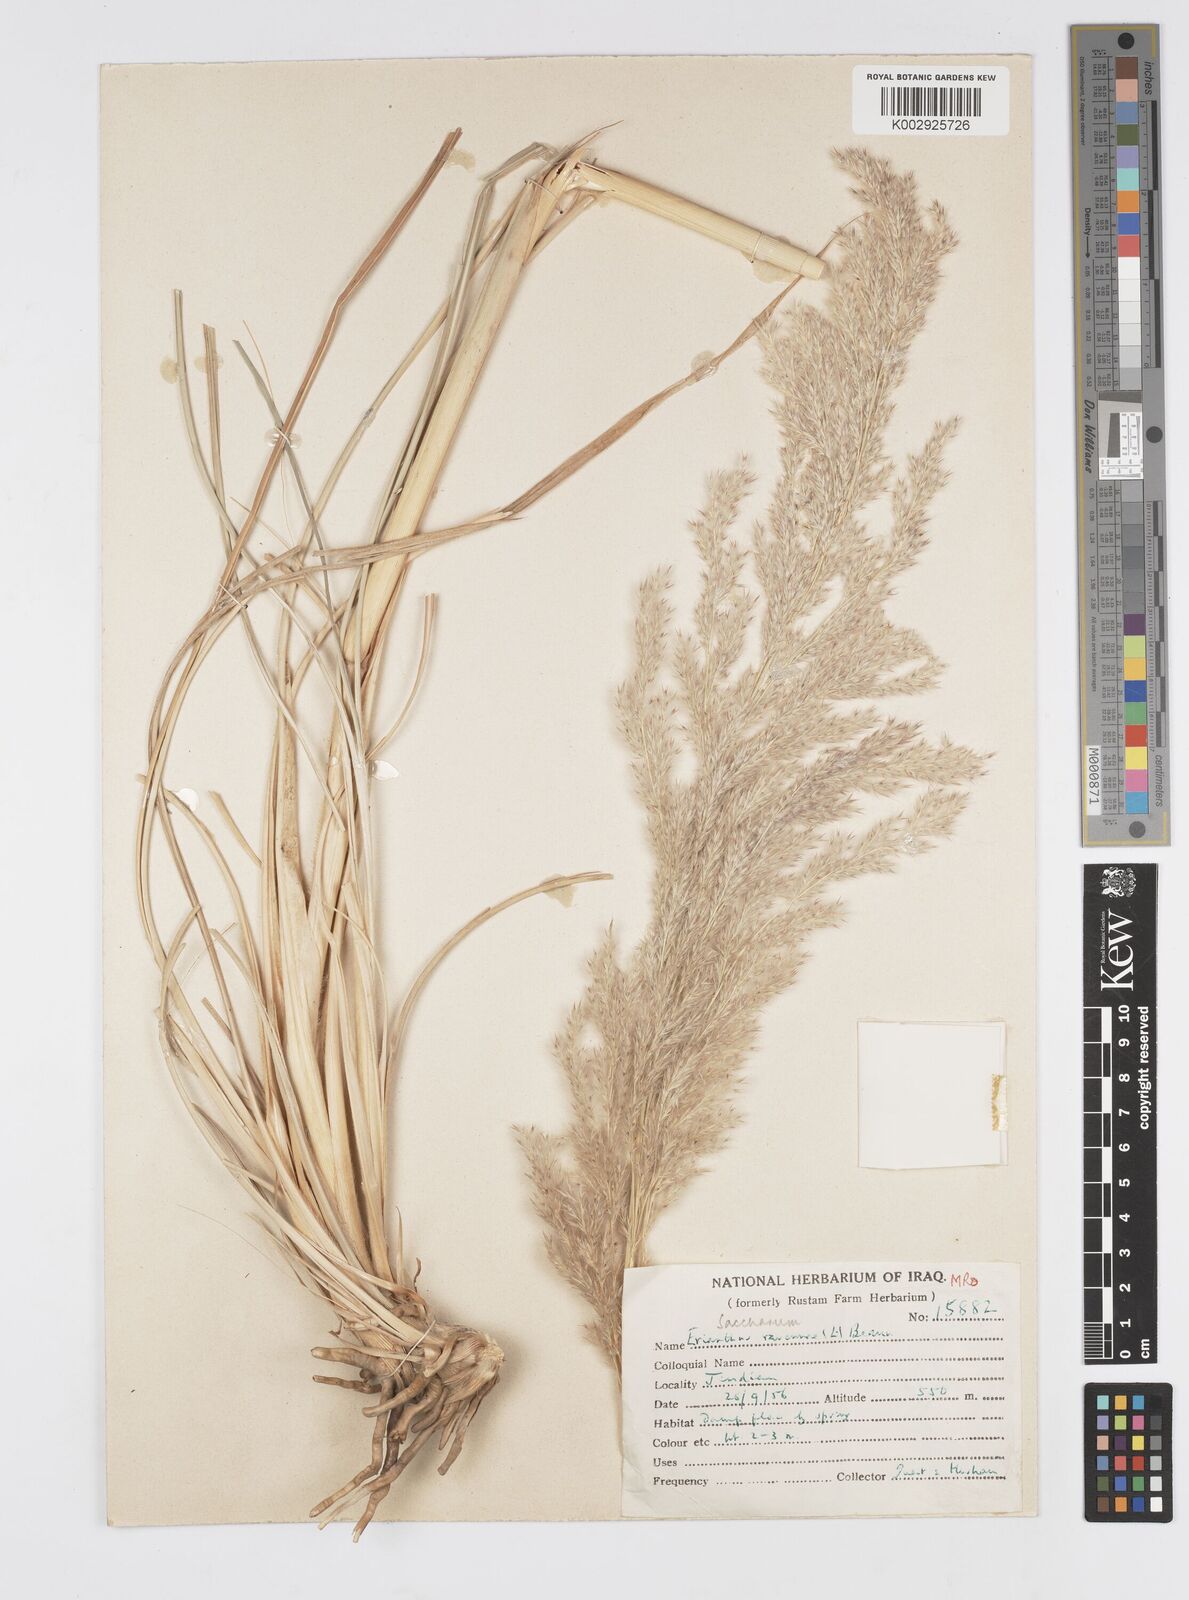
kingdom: Plantae
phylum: Tracheophyta
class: Liliopsida
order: Poales
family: Poaceae
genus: Tripidium
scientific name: Tripidium ravennae
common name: Ravenna grass
